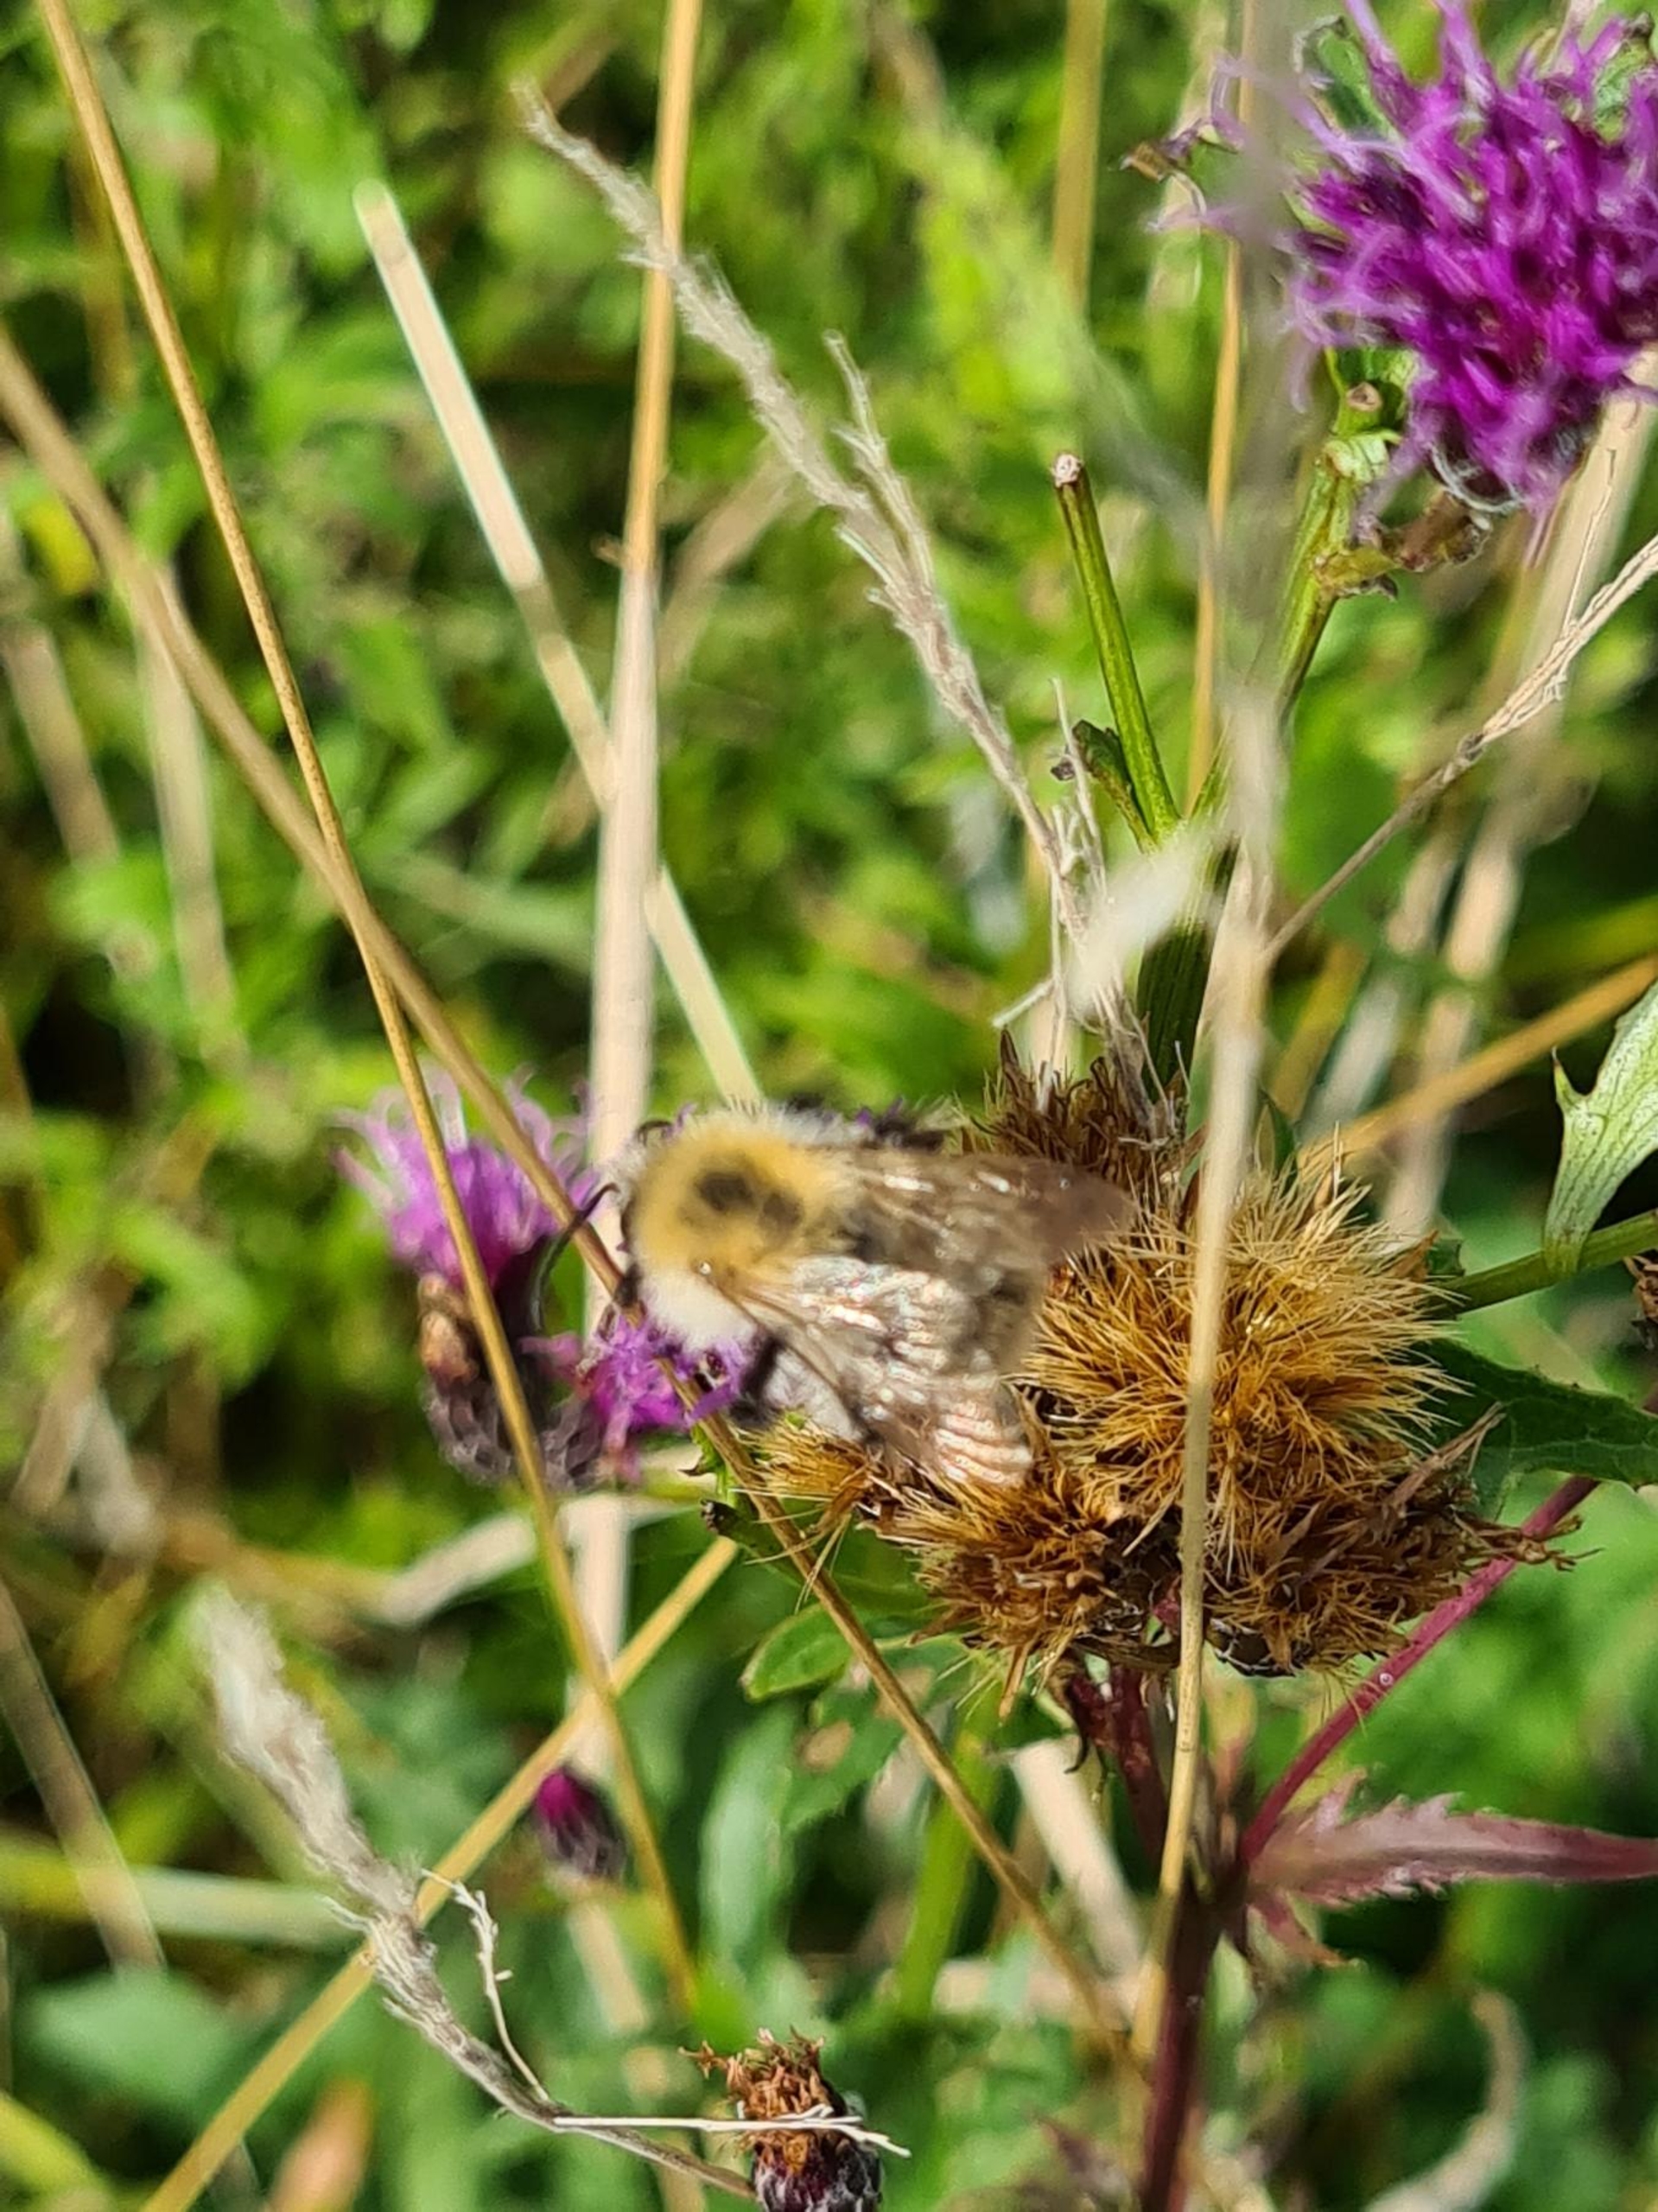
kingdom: Animalia
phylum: Arthropoda
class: Insecta
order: Hymenoptera
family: Apidae
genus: Bombus
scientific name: Bombus pascuorum
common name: Agerhumle
